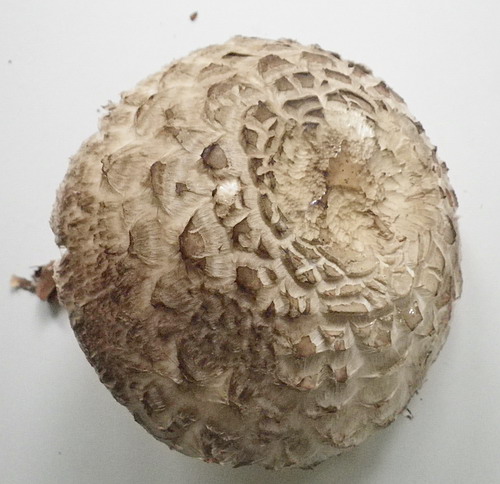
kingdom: Fungi
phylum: Basidiomycota
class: Agaricomycetes
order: Agaricales
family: Agaricaceae
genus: Chlorophyllum
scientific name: Chlorophyllum rhacodes
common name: ægte rabarberhat
